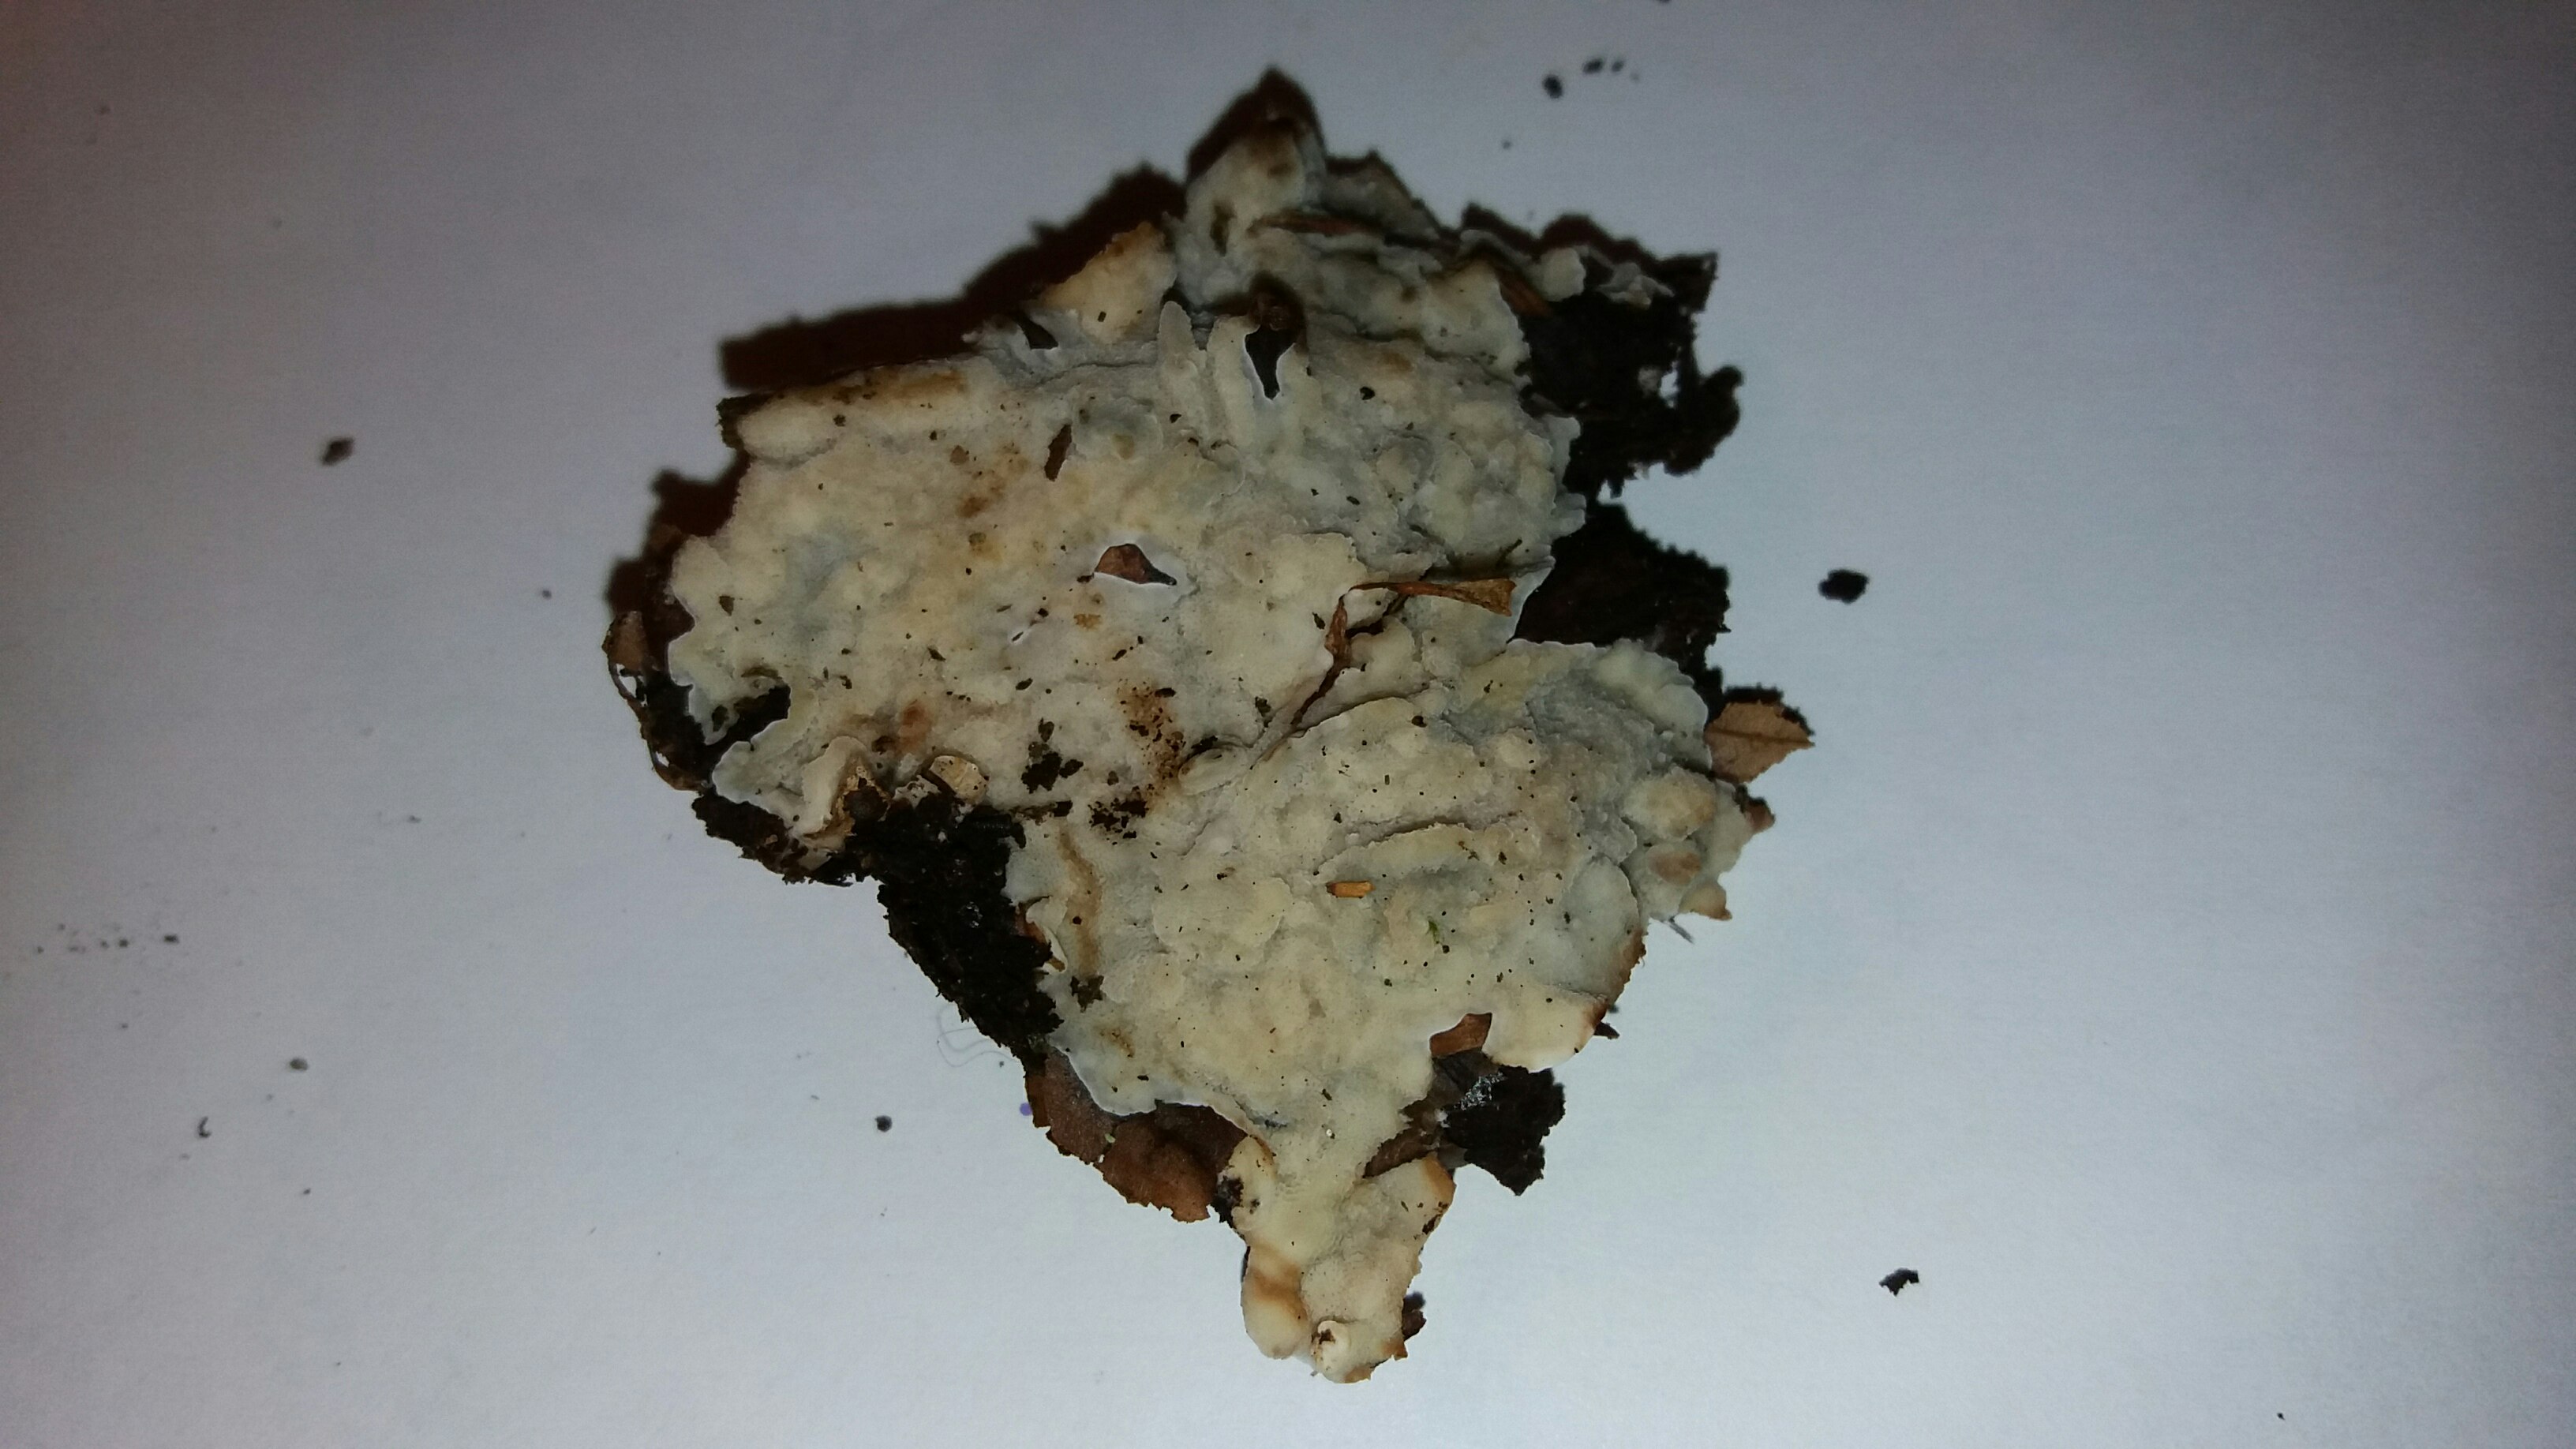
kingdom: Fungi
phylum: Basidiomycota
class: Agaricomycetes
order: Polyporales
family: Meruliaceae
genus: Physisporinus
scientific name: Physisporinus vitreus
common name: mastesvamp
